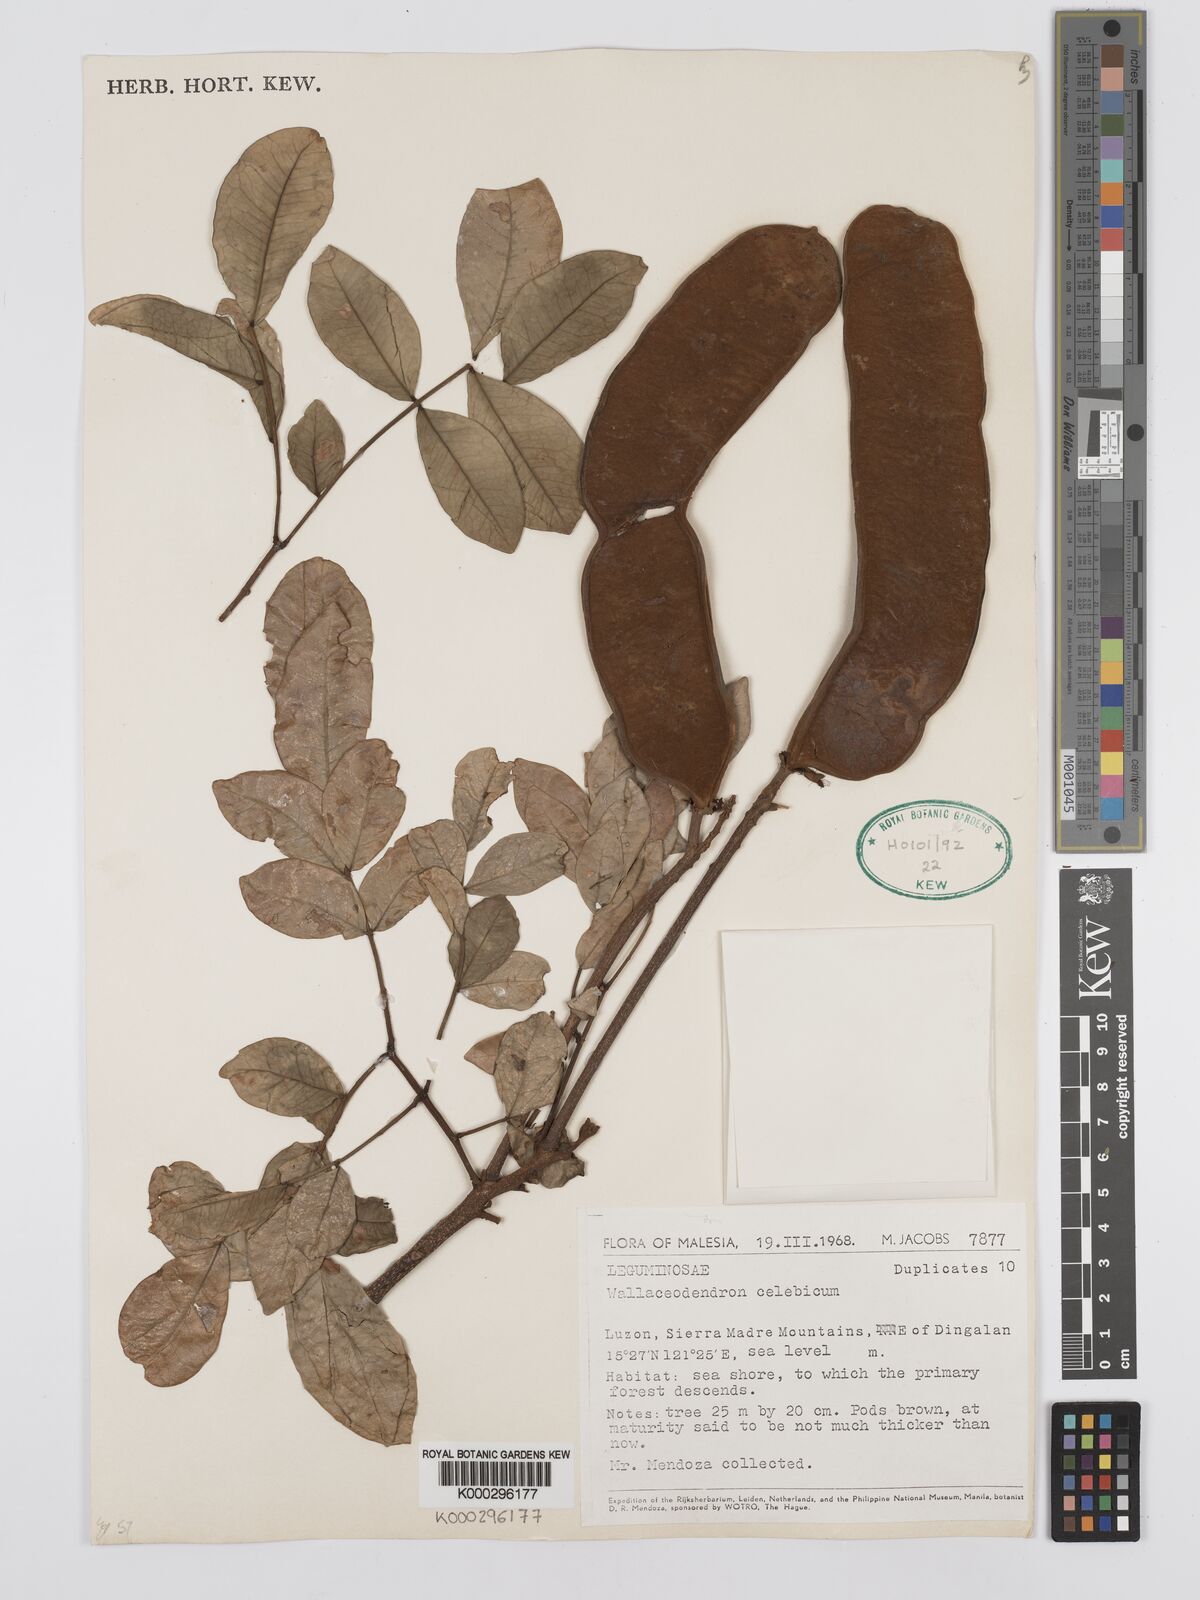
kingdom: Plantae
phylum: Tracheophyta
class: Magnoliopsida
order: Fabales
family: Fabaceae
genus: Wallaceodendron
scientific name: Wallaceodendron celebicum
